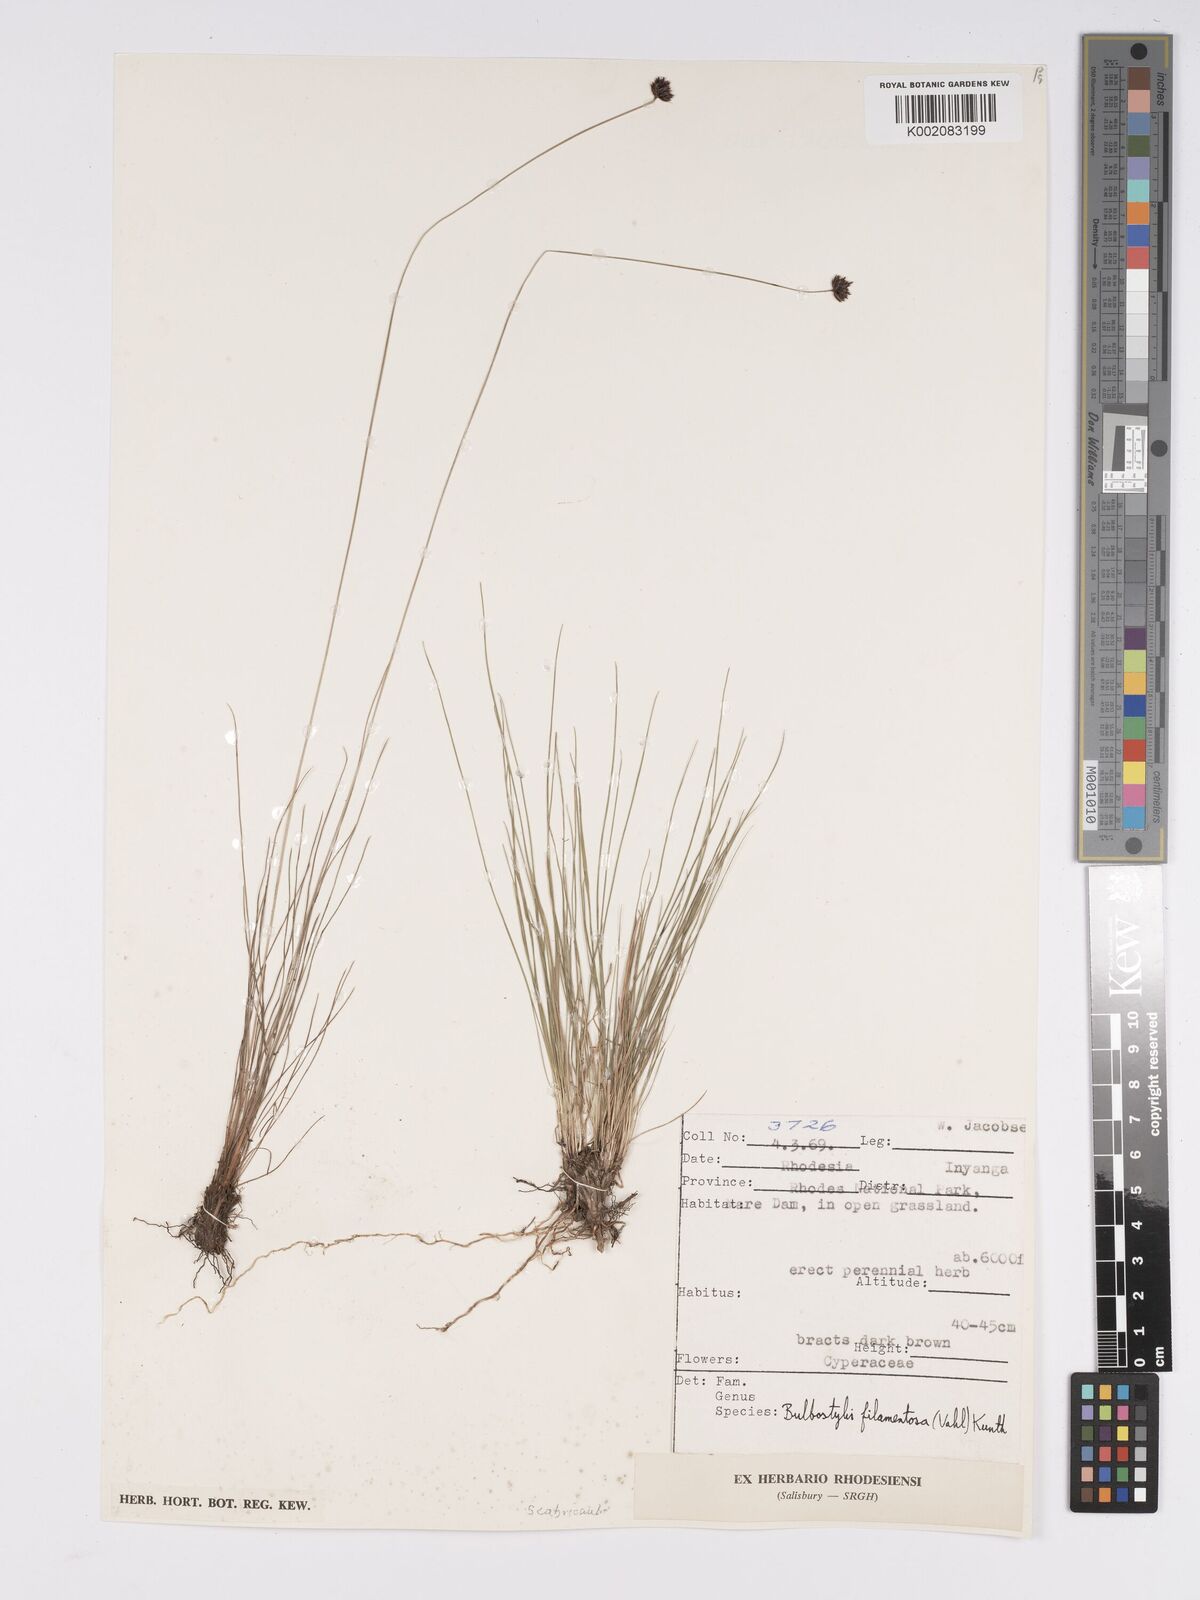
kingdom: Plantae
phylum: Tracheophyta
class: Liliopsida
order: Poales
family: Cyperaceae
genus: Bulbostylis
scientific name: Bulbostylis filamentosa
